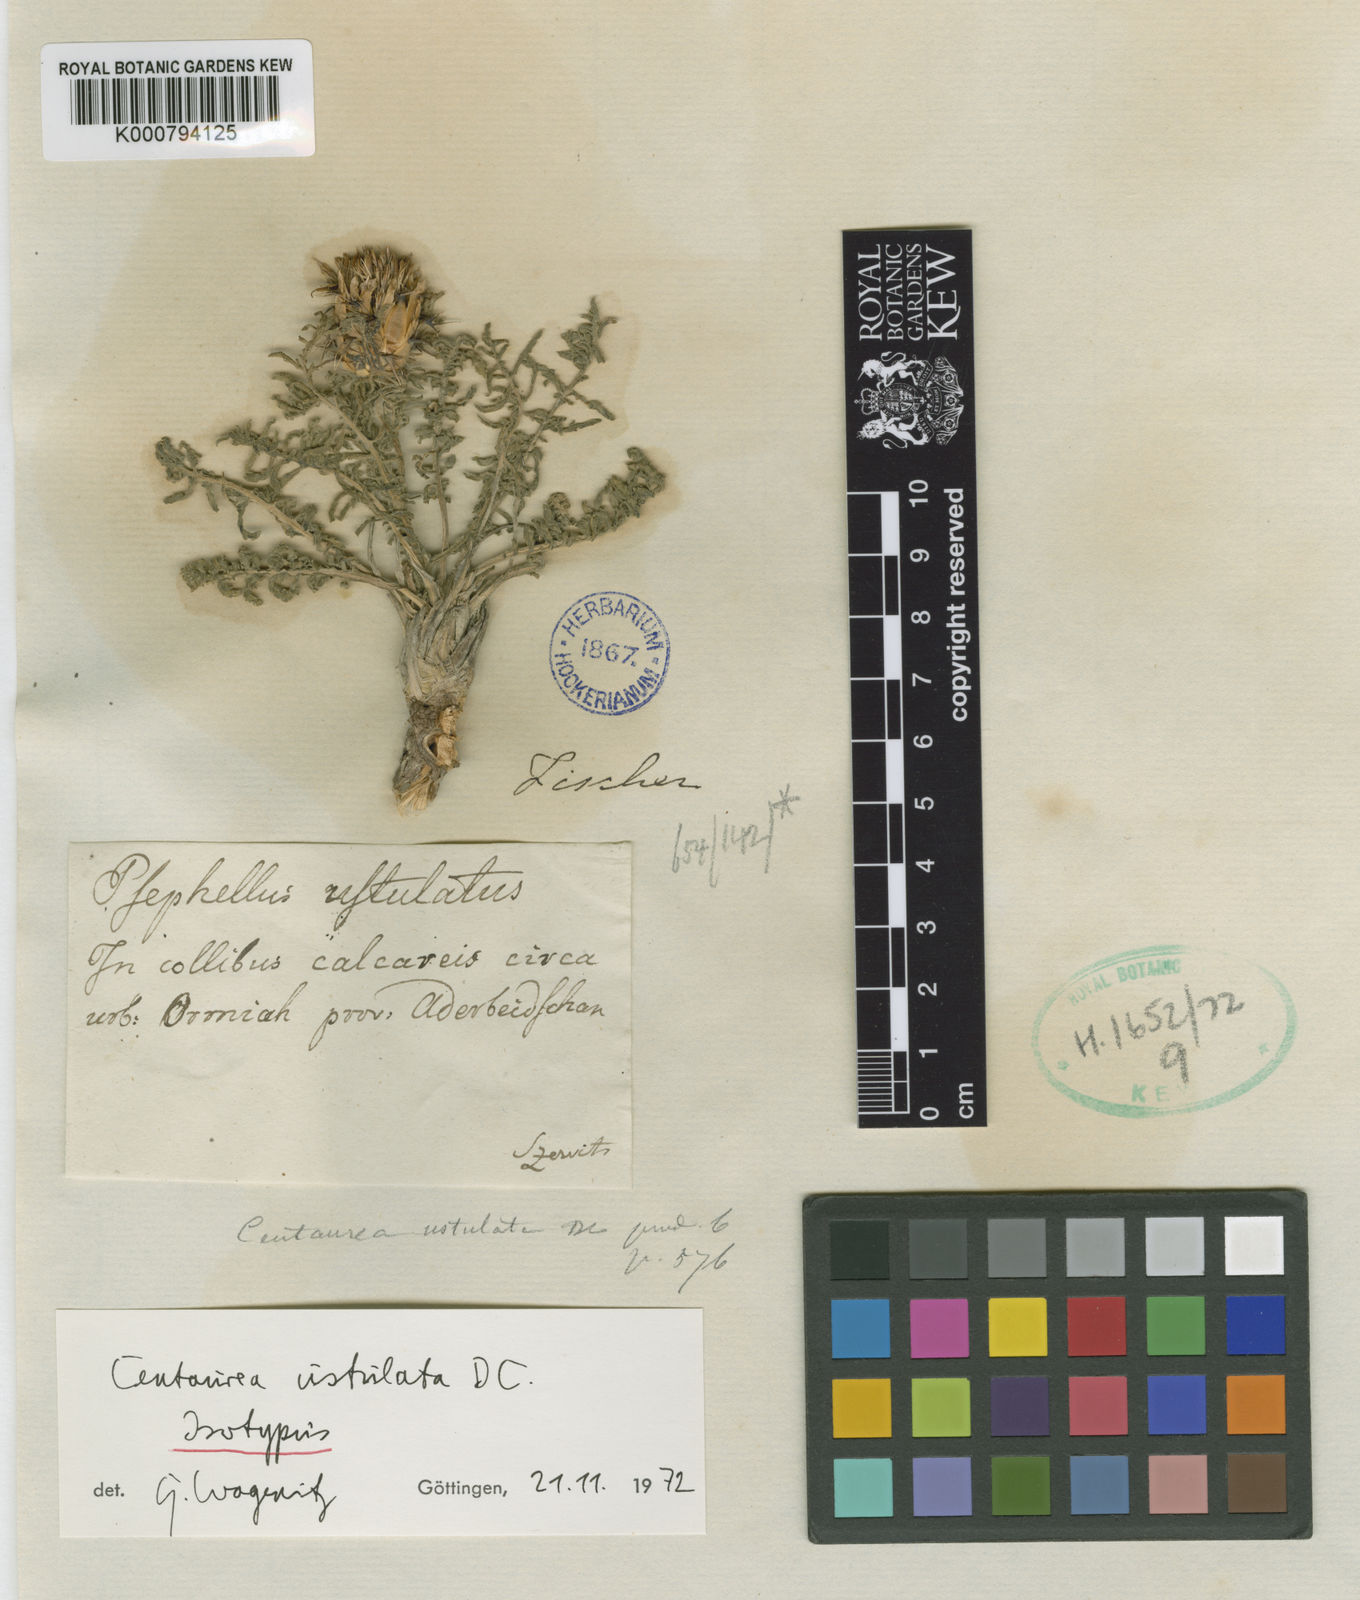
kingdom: Plantae
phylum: Tracheophyta
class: Magnoliopsida
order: Asterales
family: Asteraceae
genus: Centaurea
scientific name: Centaurea ustulata
